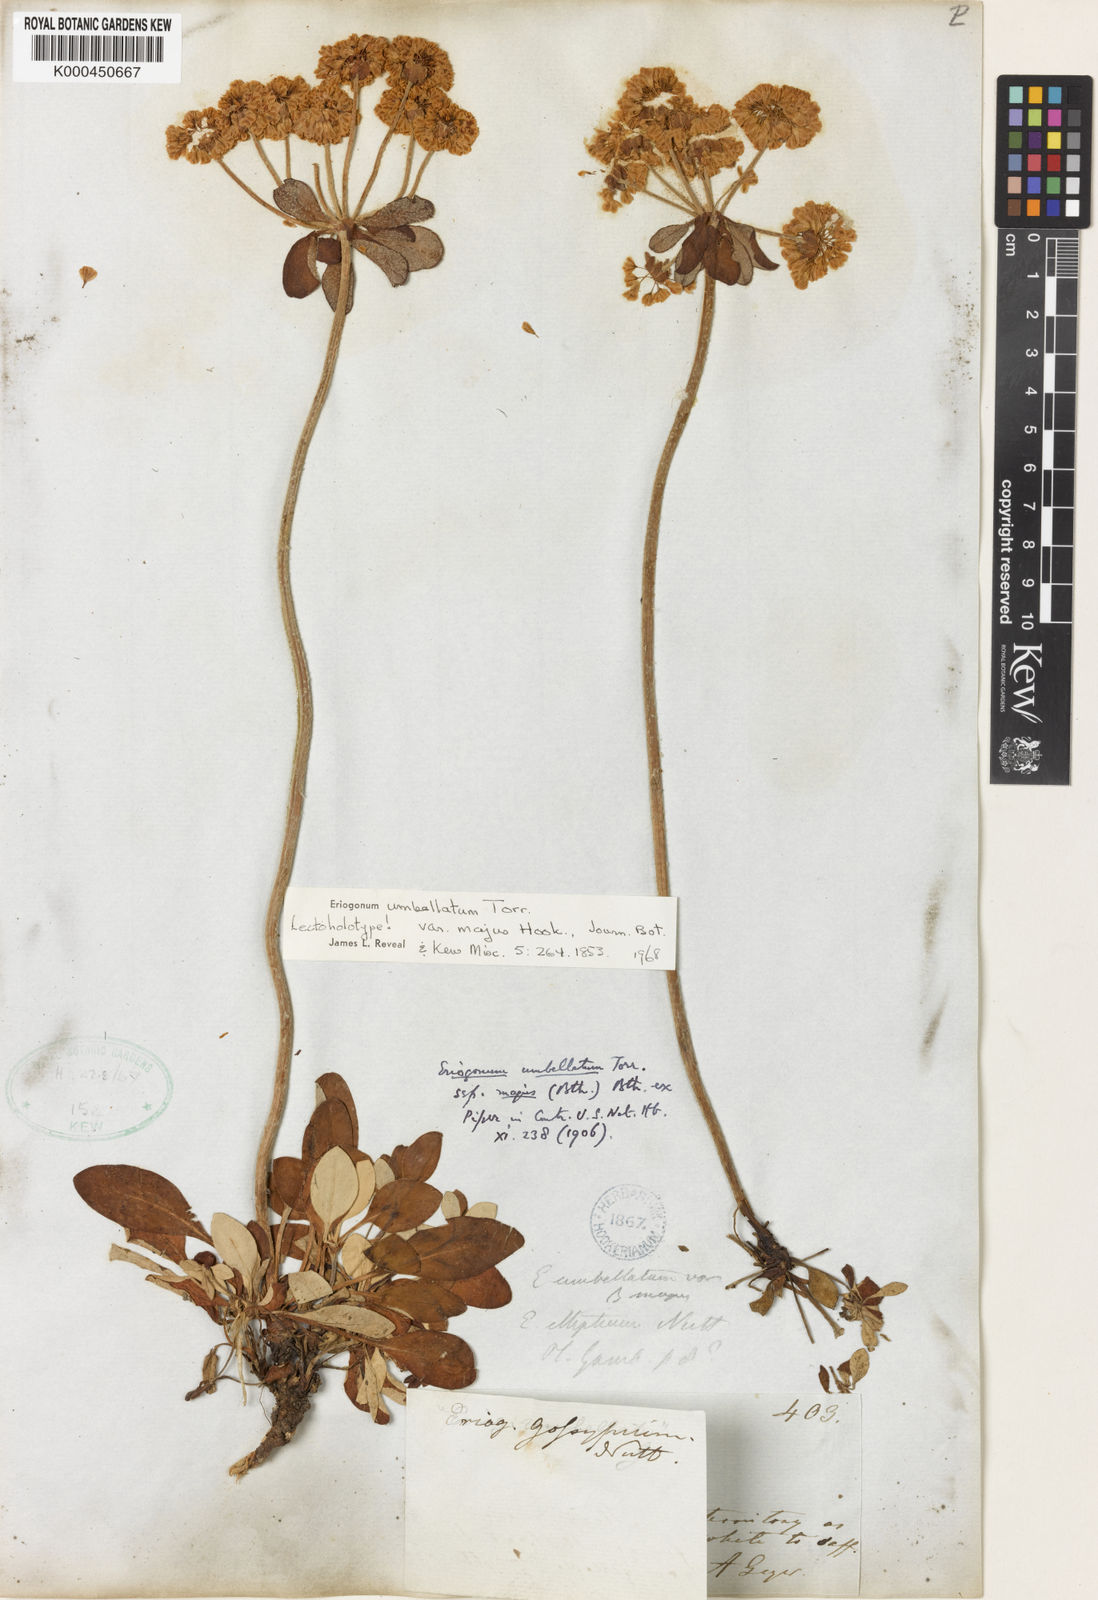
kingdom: Plantae
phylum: Tracheophyta
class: Magnoliopsida
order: Caryophyllales
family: Polygonaceae
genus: Eriogonum
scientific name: Eriogonum umbellatum
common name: Sulfur-buckwheat
